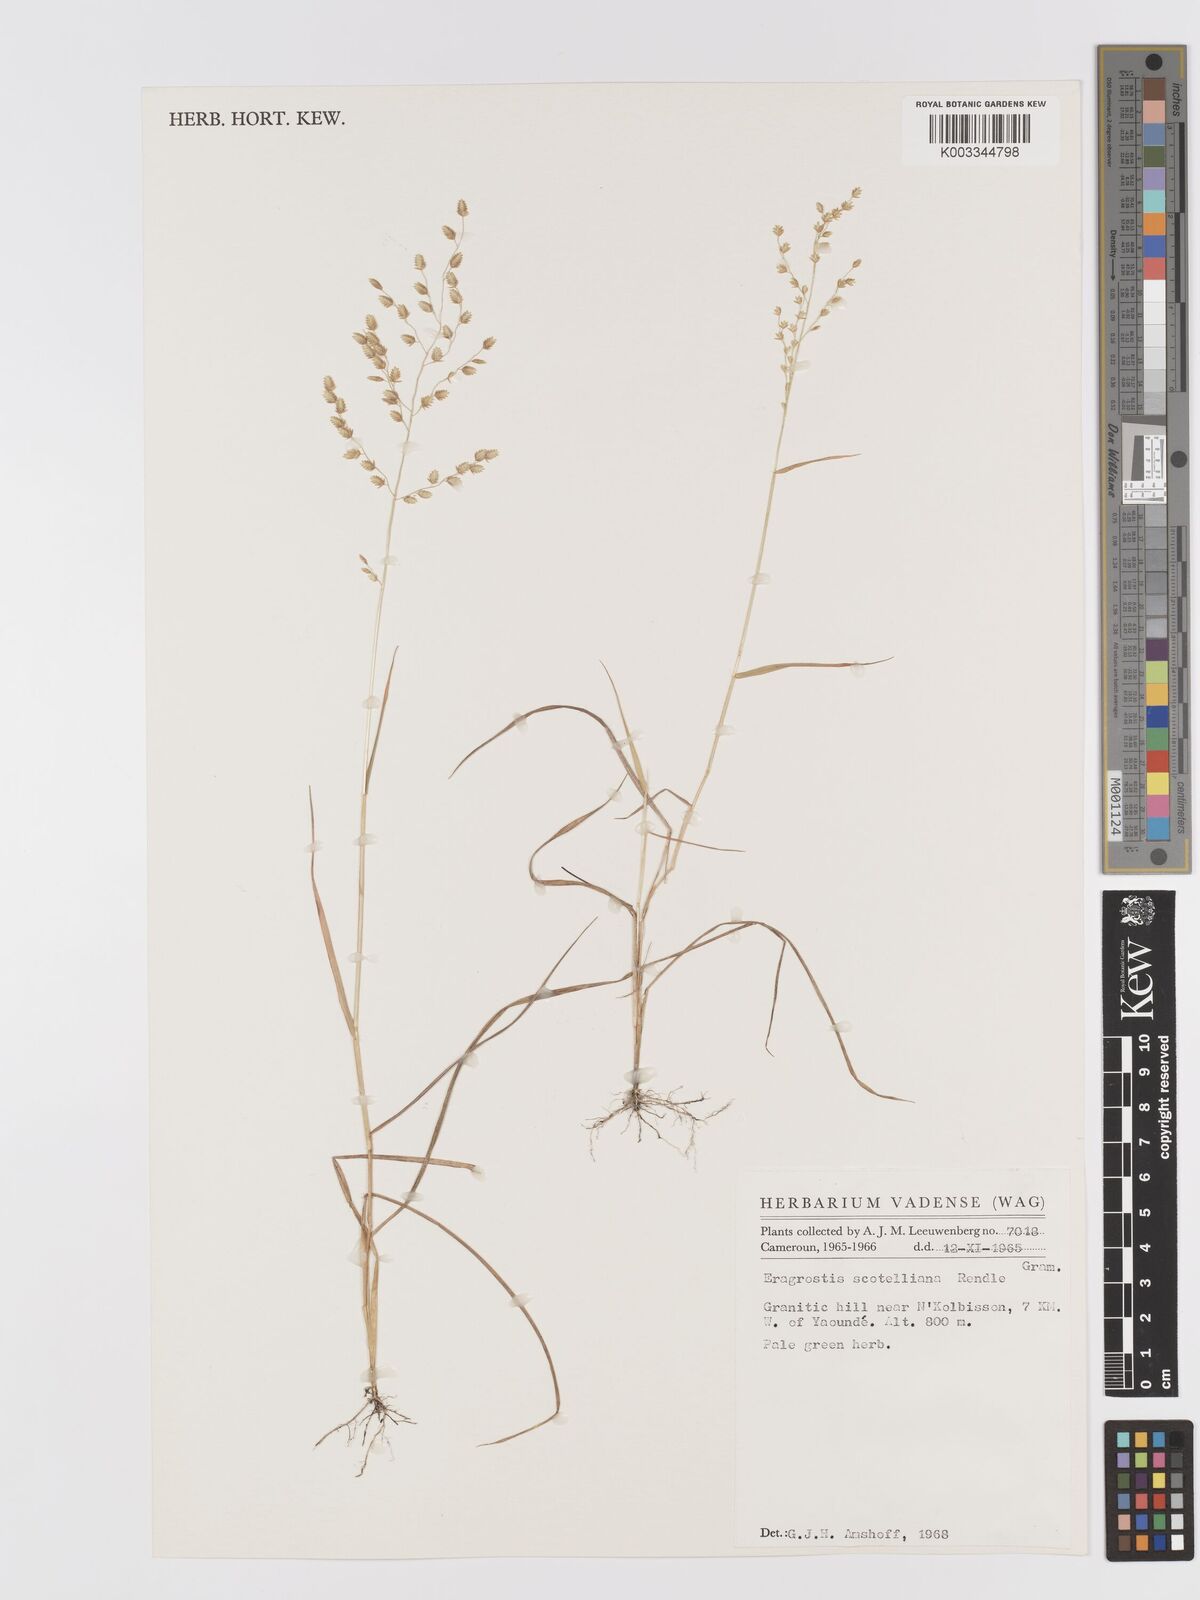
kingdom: Plantae
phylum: Tracheophyta
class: Liliopsida
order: Poales
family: Poaceae
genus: Eragrostis
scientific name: Eragrostis scotelliana
